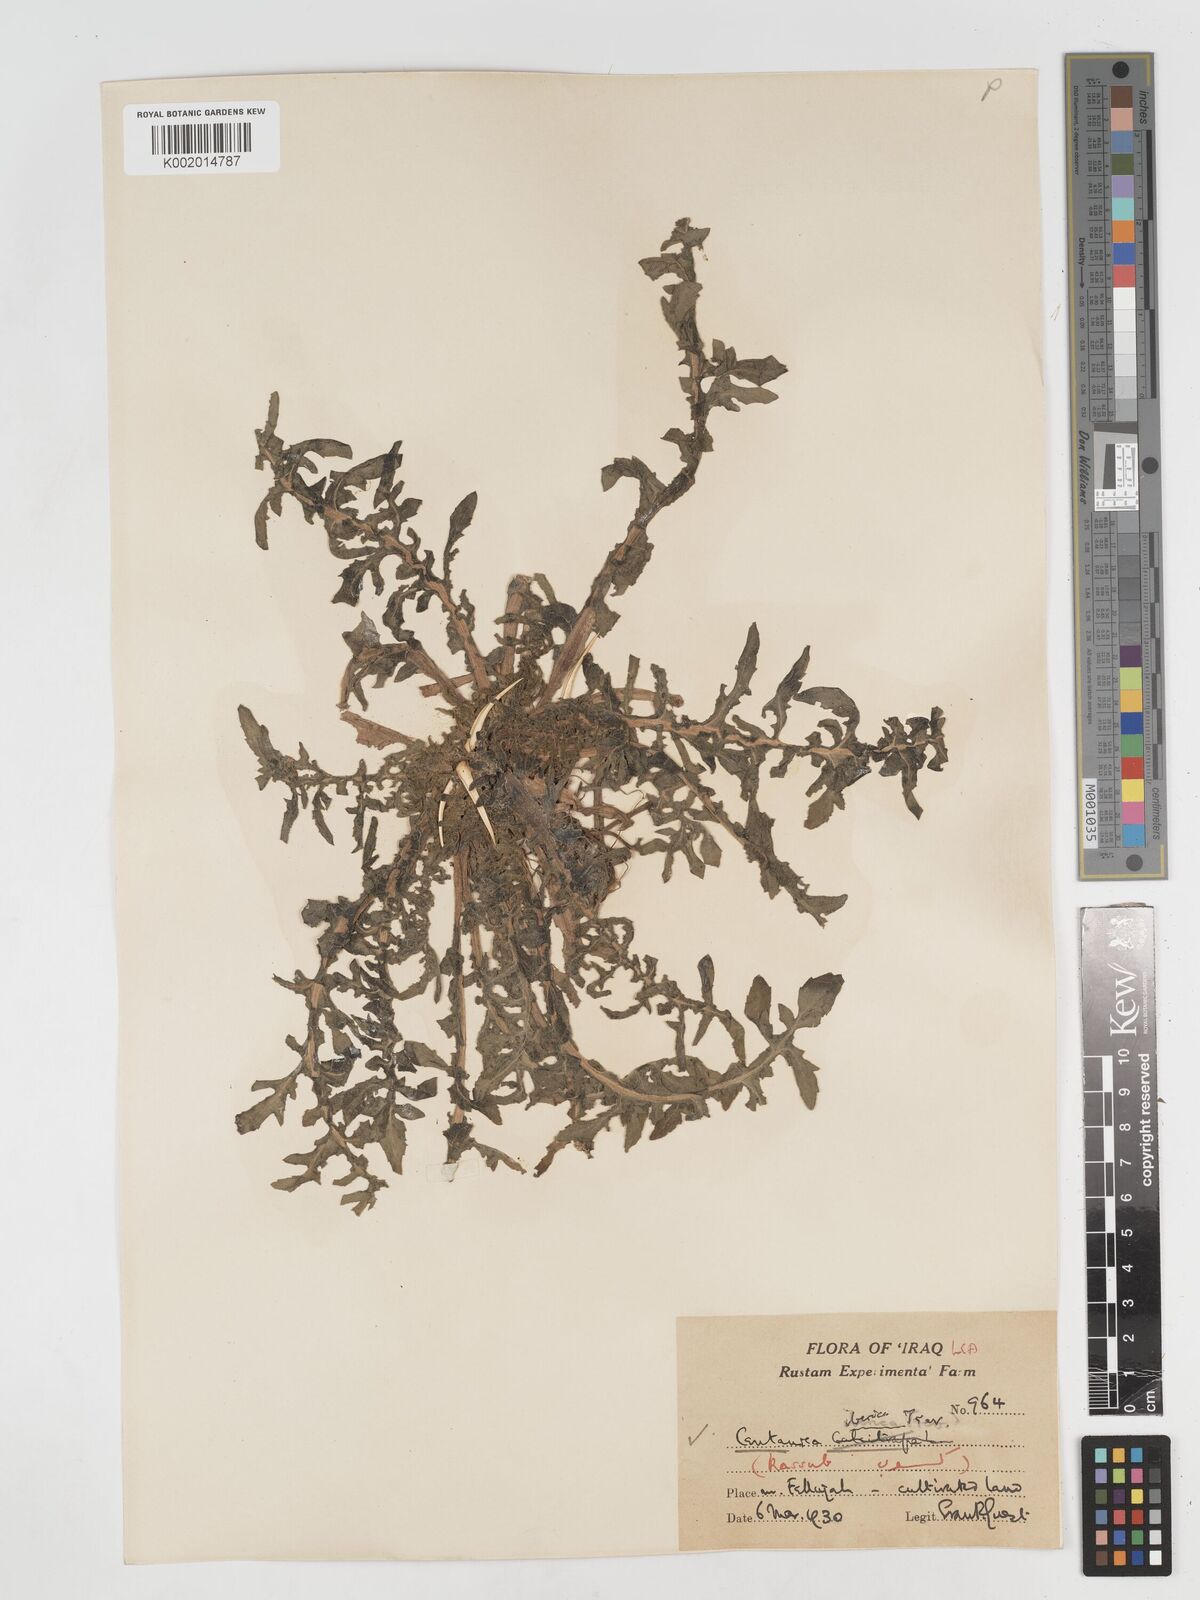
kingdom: Plantae
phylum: Tracheophyta
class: Magnoliopsida
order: Asterales
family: Asteraceae
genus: Centaurea
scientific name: Centaurea iberica
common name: Iberian knapweed
